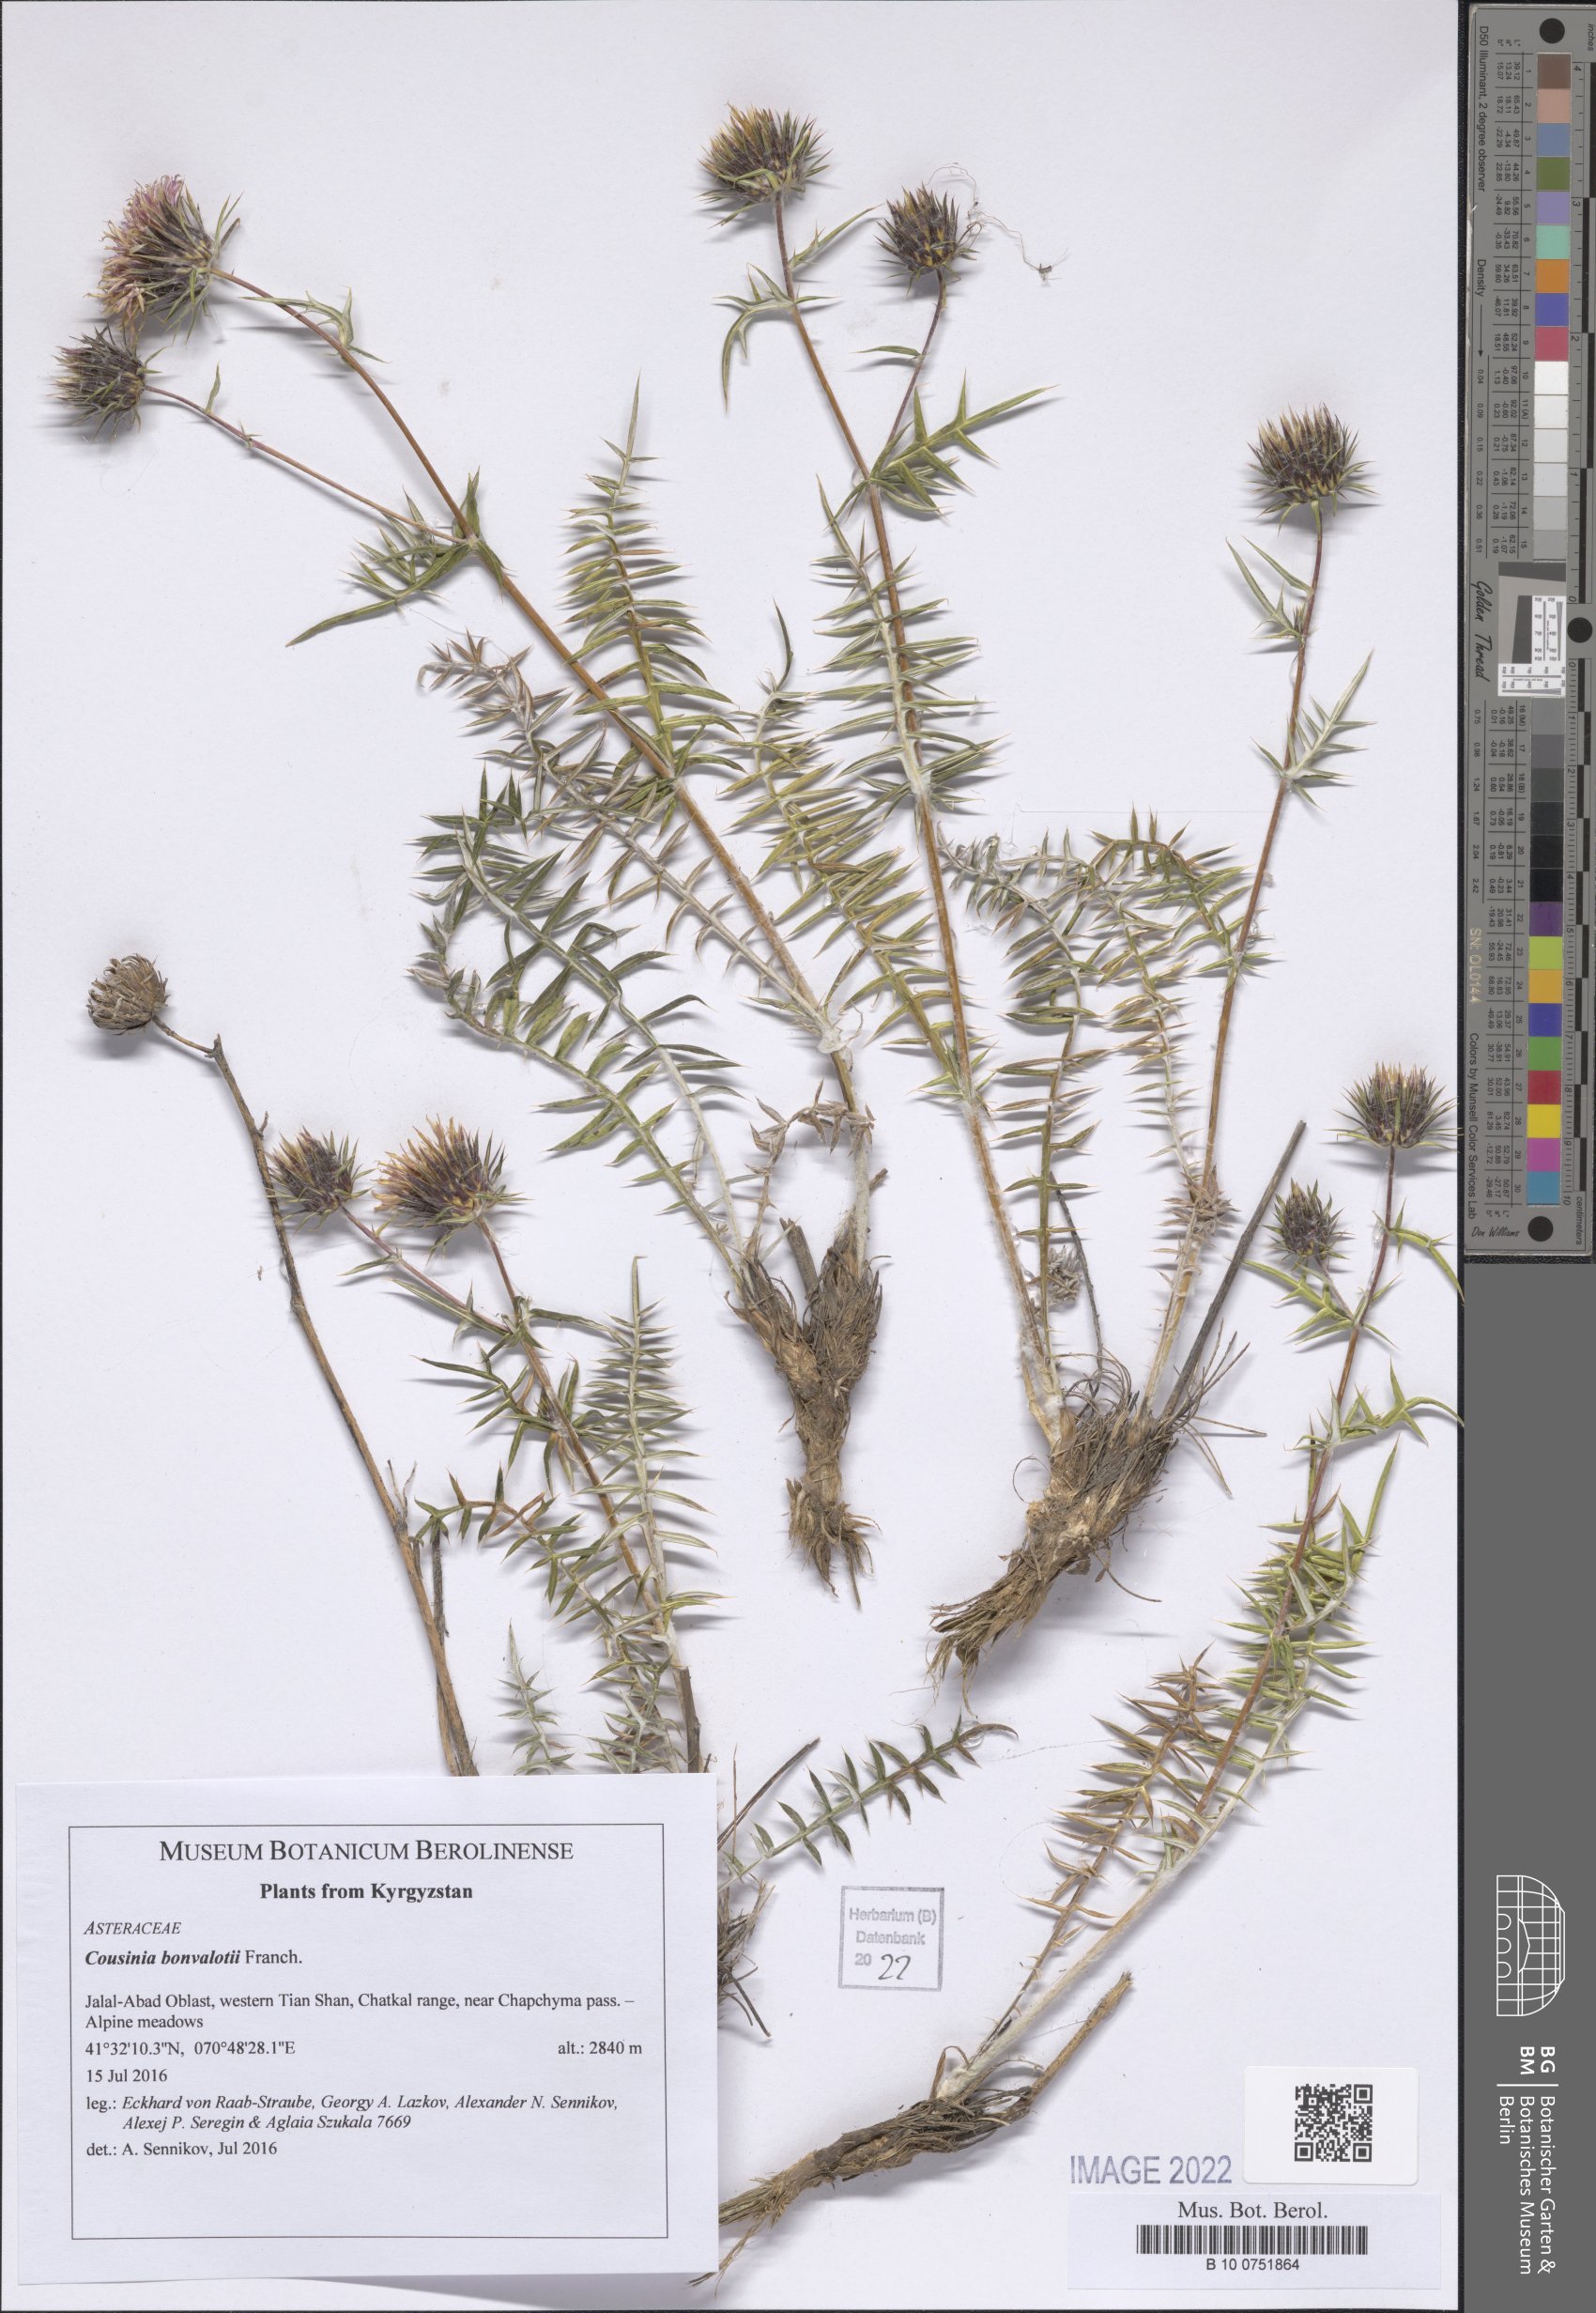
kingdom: Plantae
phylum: Tracheophyta
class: Magnoliopsida
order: Asterales
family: Asteraceae
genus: Cousinia
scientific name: Cousinia bonvalotii
